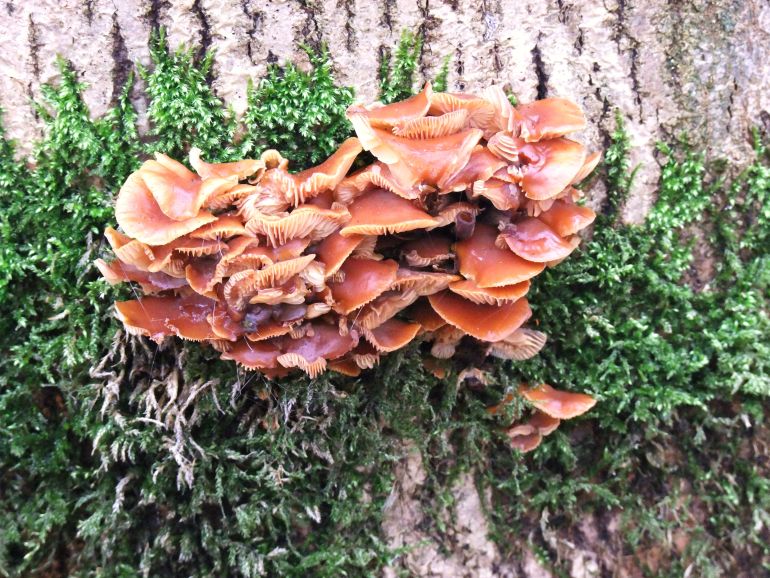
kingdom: Fungi
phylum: Basidiomycota
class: Agaricomycetes
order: Agaricales
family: Physalacriaceae
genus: Flammulina
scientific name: Flammulina velutipes
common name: gul fløjlsfod
